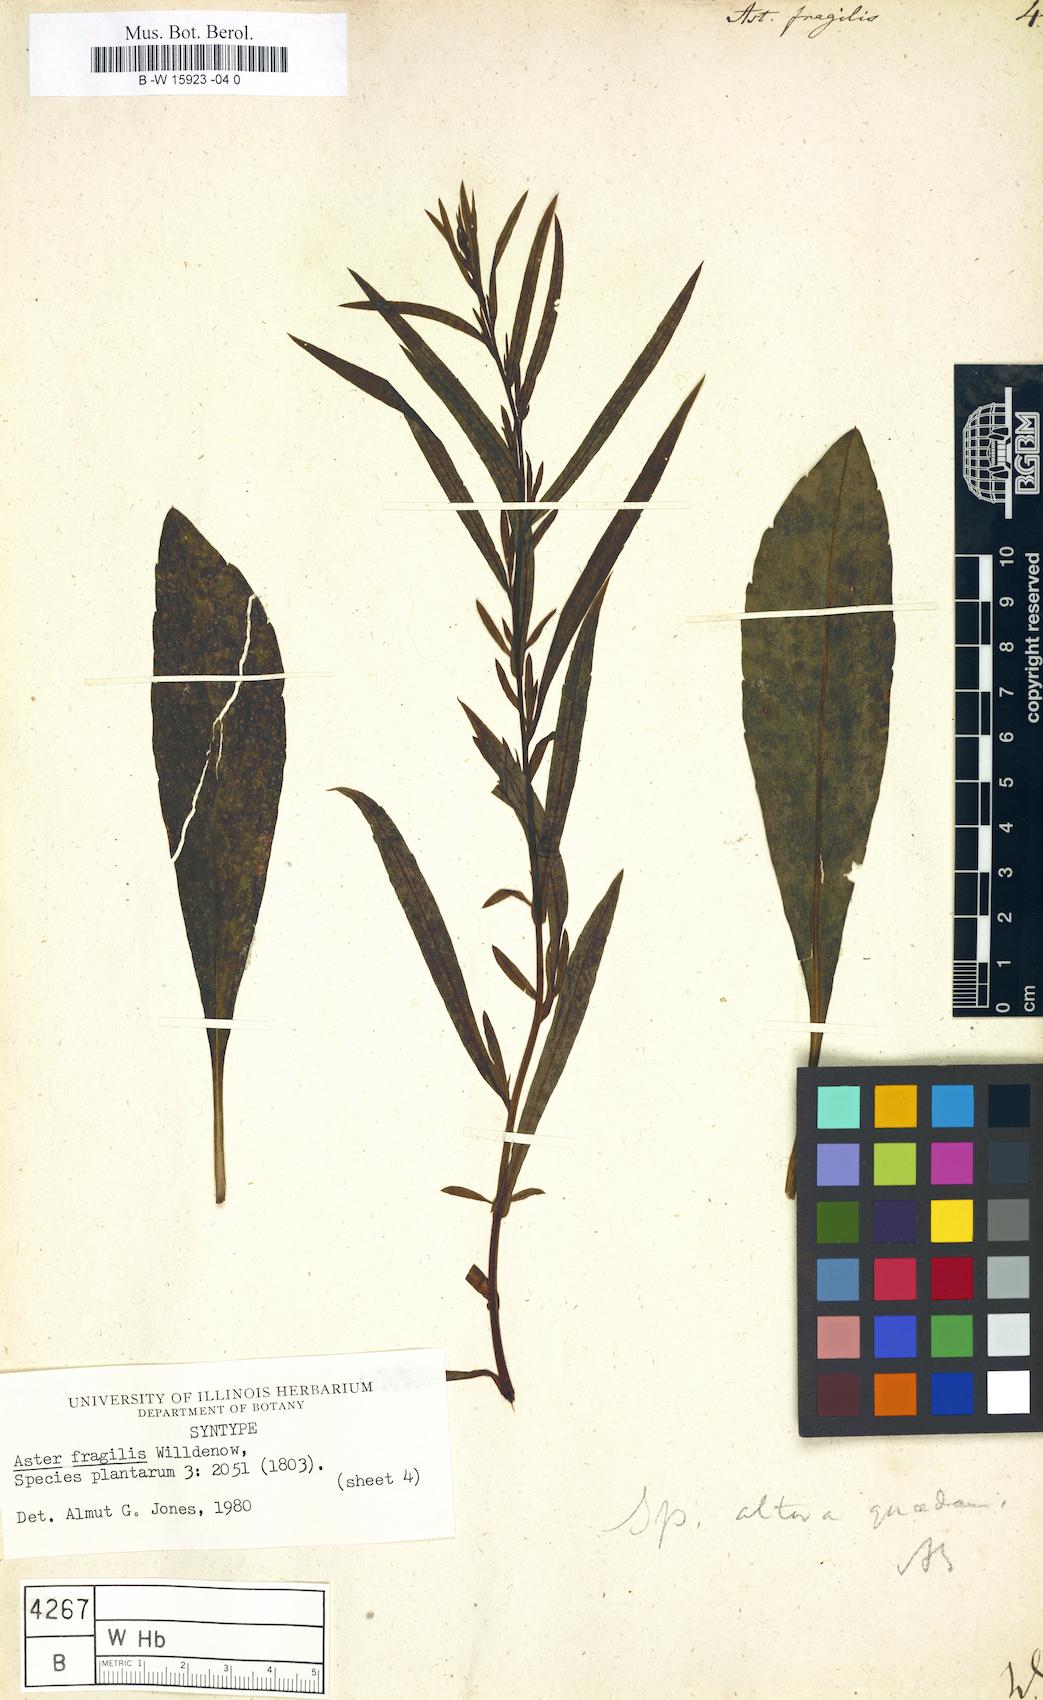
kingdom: Plantae
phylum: Tracheophyta
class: Magnoliopsida
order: Asterales
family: Asteraceae
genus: Aster
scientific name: Aster fragilis
